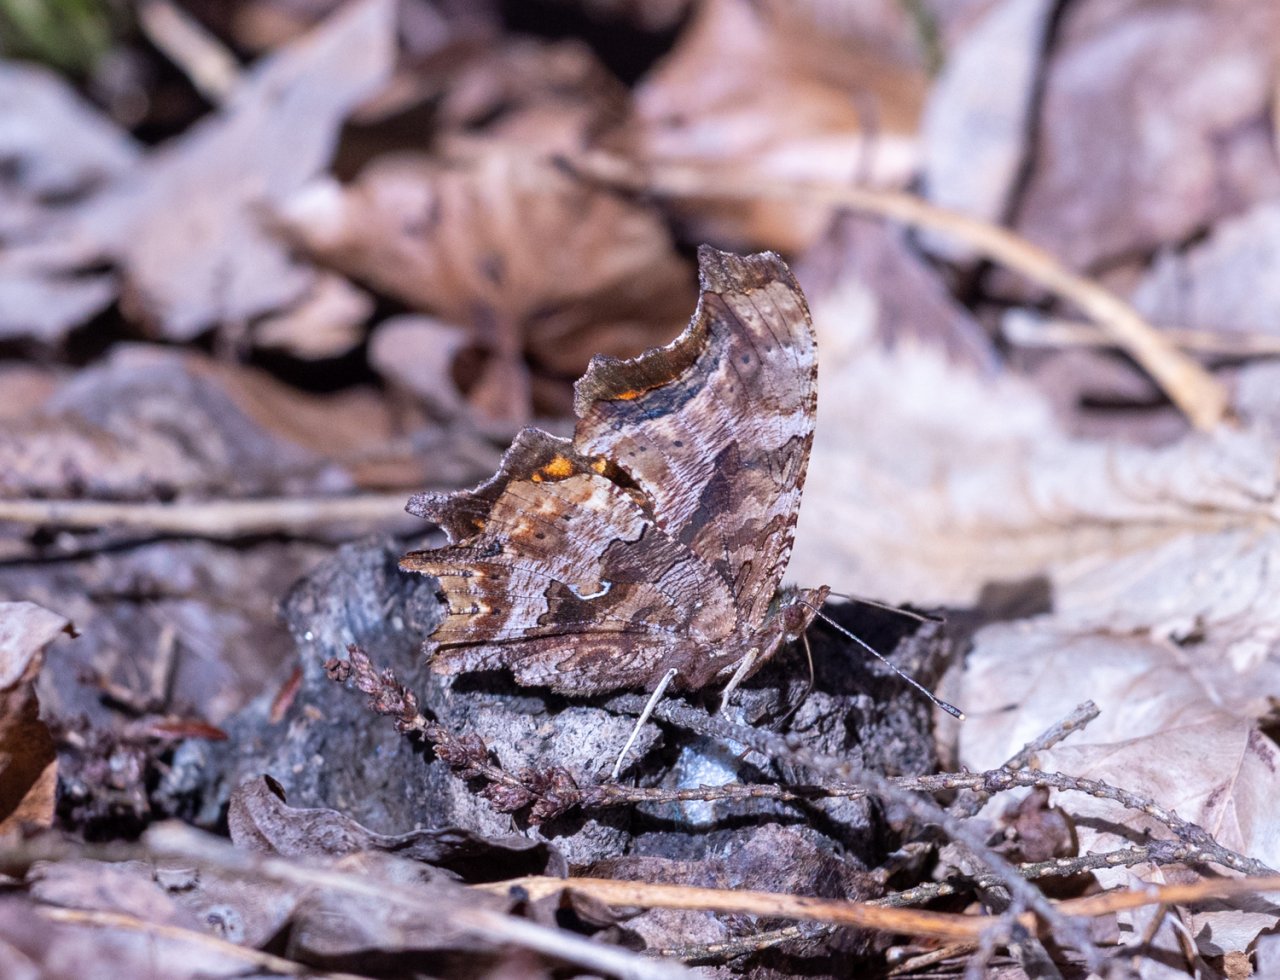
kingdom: Animalia
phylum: Arthropoda
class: Insecta
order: Lepidoptera
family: Nymphalidae
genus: Polygonia
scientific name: Polygonia comma
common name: Eastern Comma
